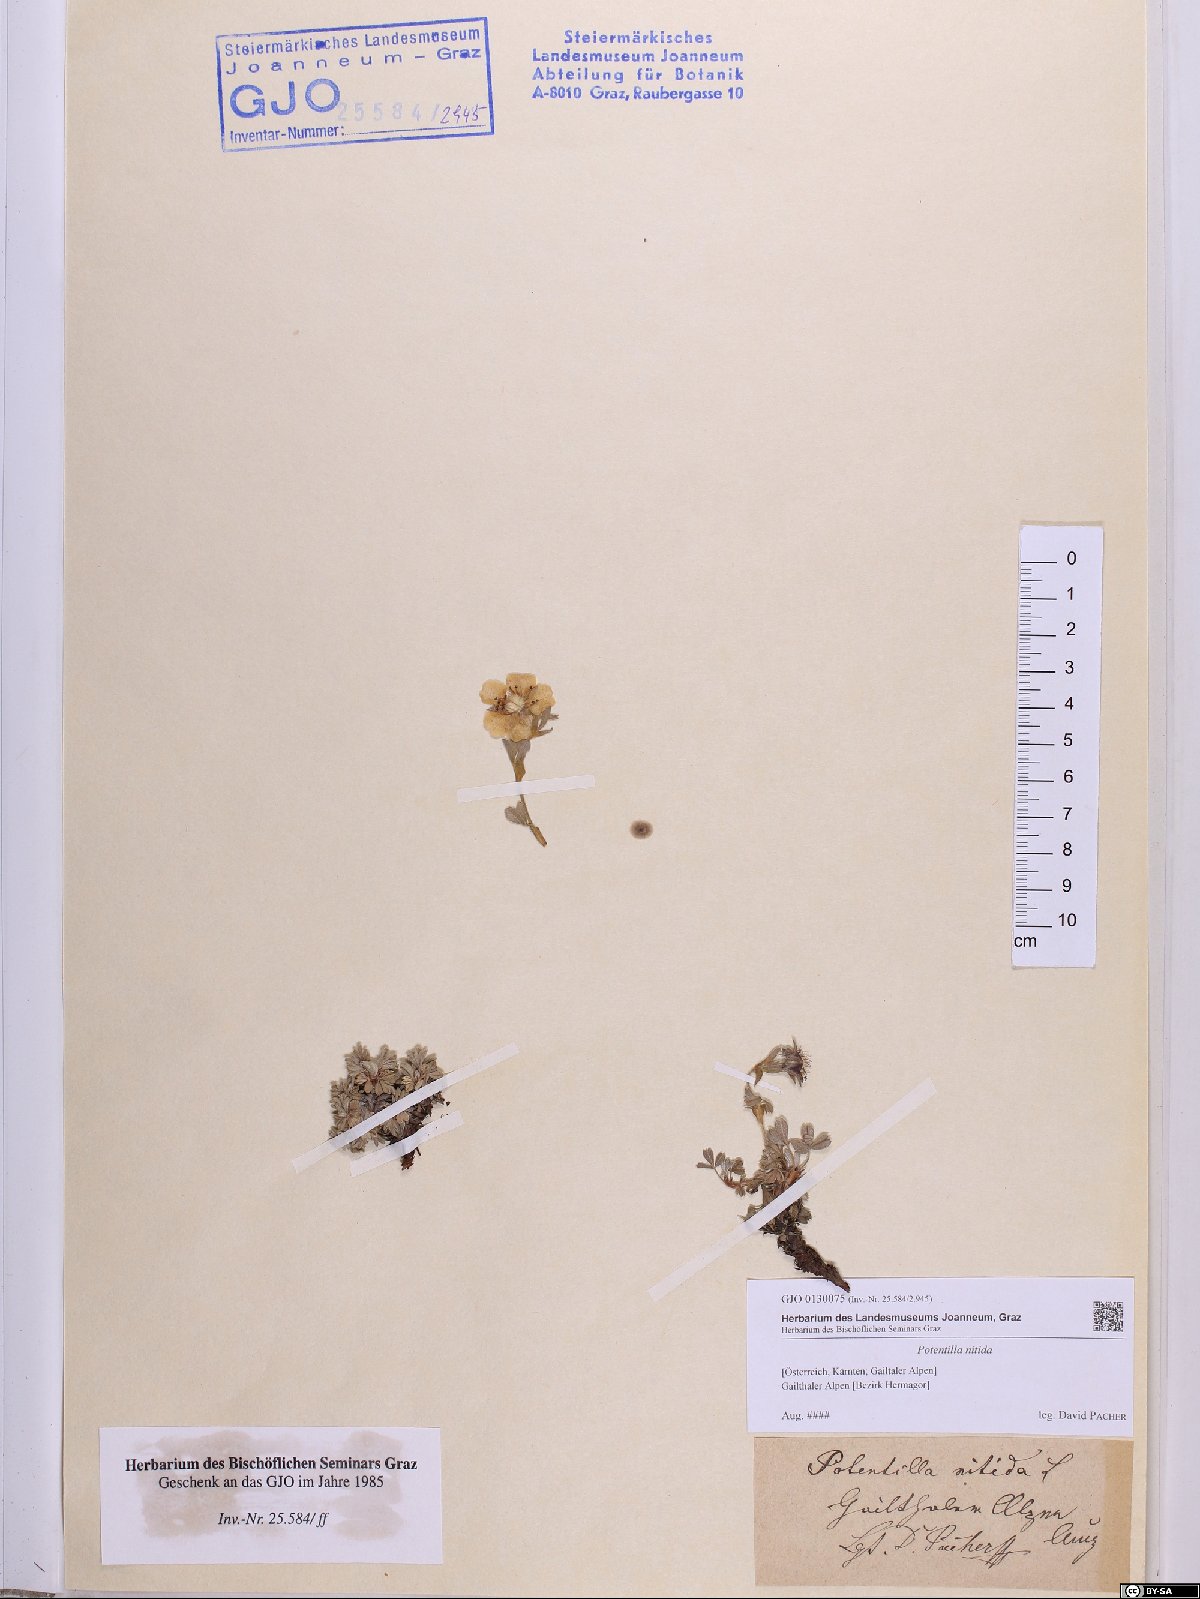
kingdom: Plantae
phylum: Tracheophyta
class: Magnoliopsida
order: Rosales
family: Rosaceae
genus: Potentilla
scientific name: Potentilla nitida
